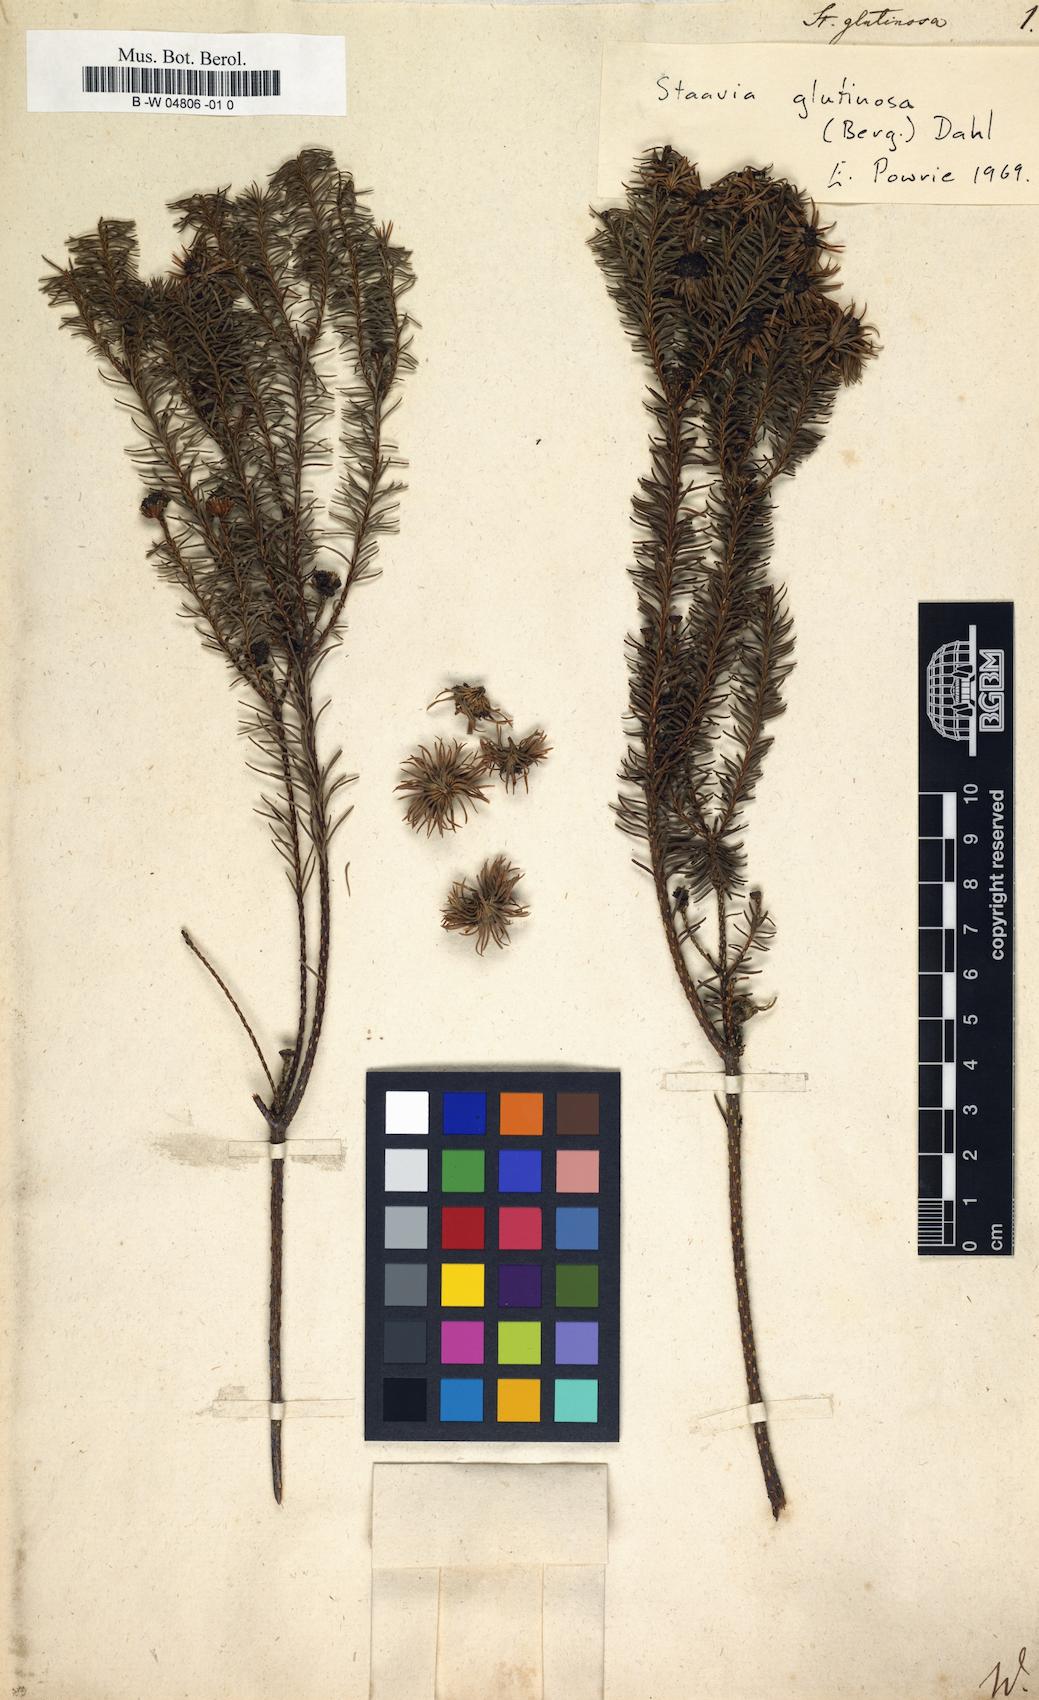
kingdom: Plantae
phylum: Tracheophyta
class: Magnoliopsida
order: Bruniales
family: Bruniaceae
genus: Staavia
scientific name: Staavia glutinosa
